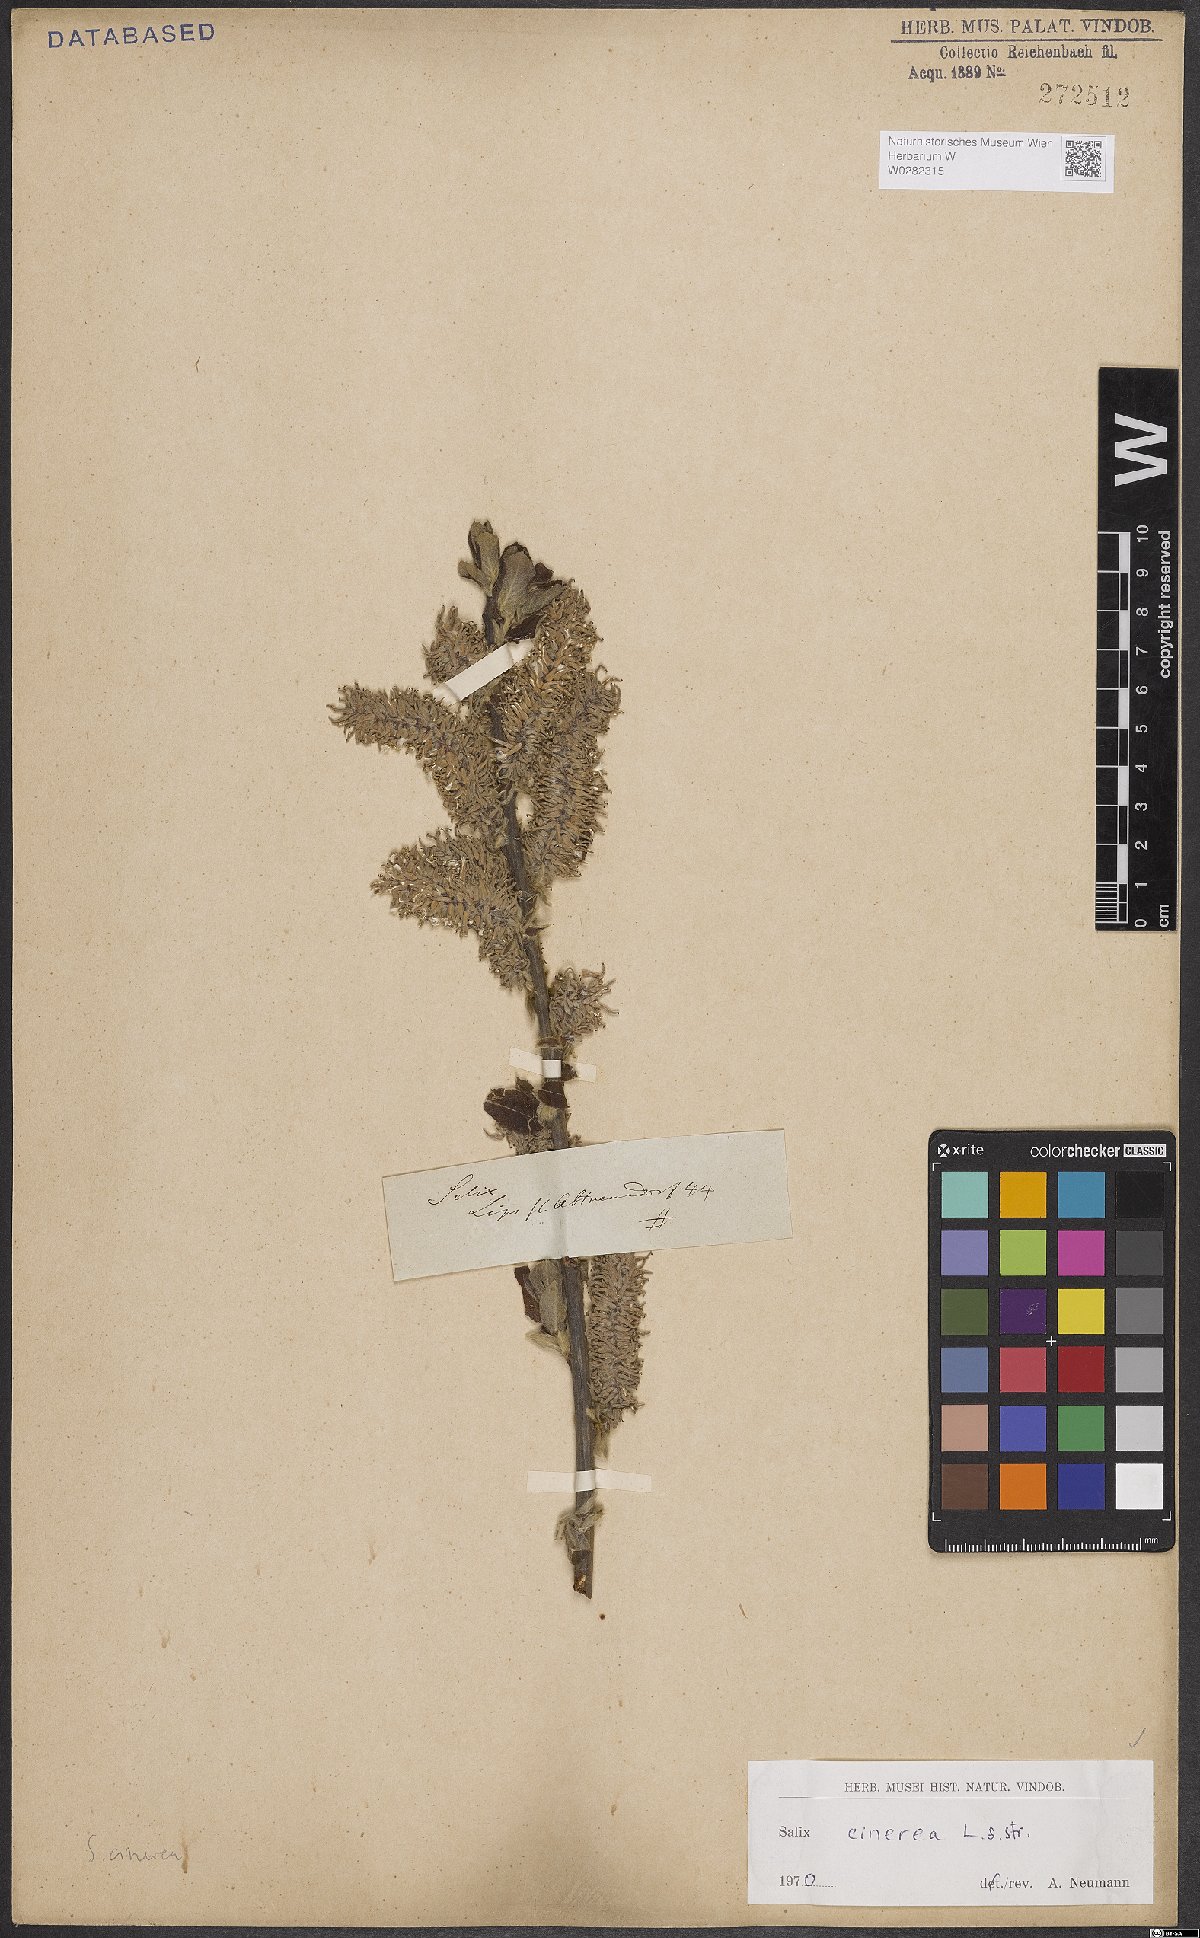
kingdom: Plantae
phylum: Tracheophyta
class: Magnoliopsida
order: Malpighiales
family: Salicaceae
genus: Salix
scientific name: Salix cinerea
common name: Common sallow
